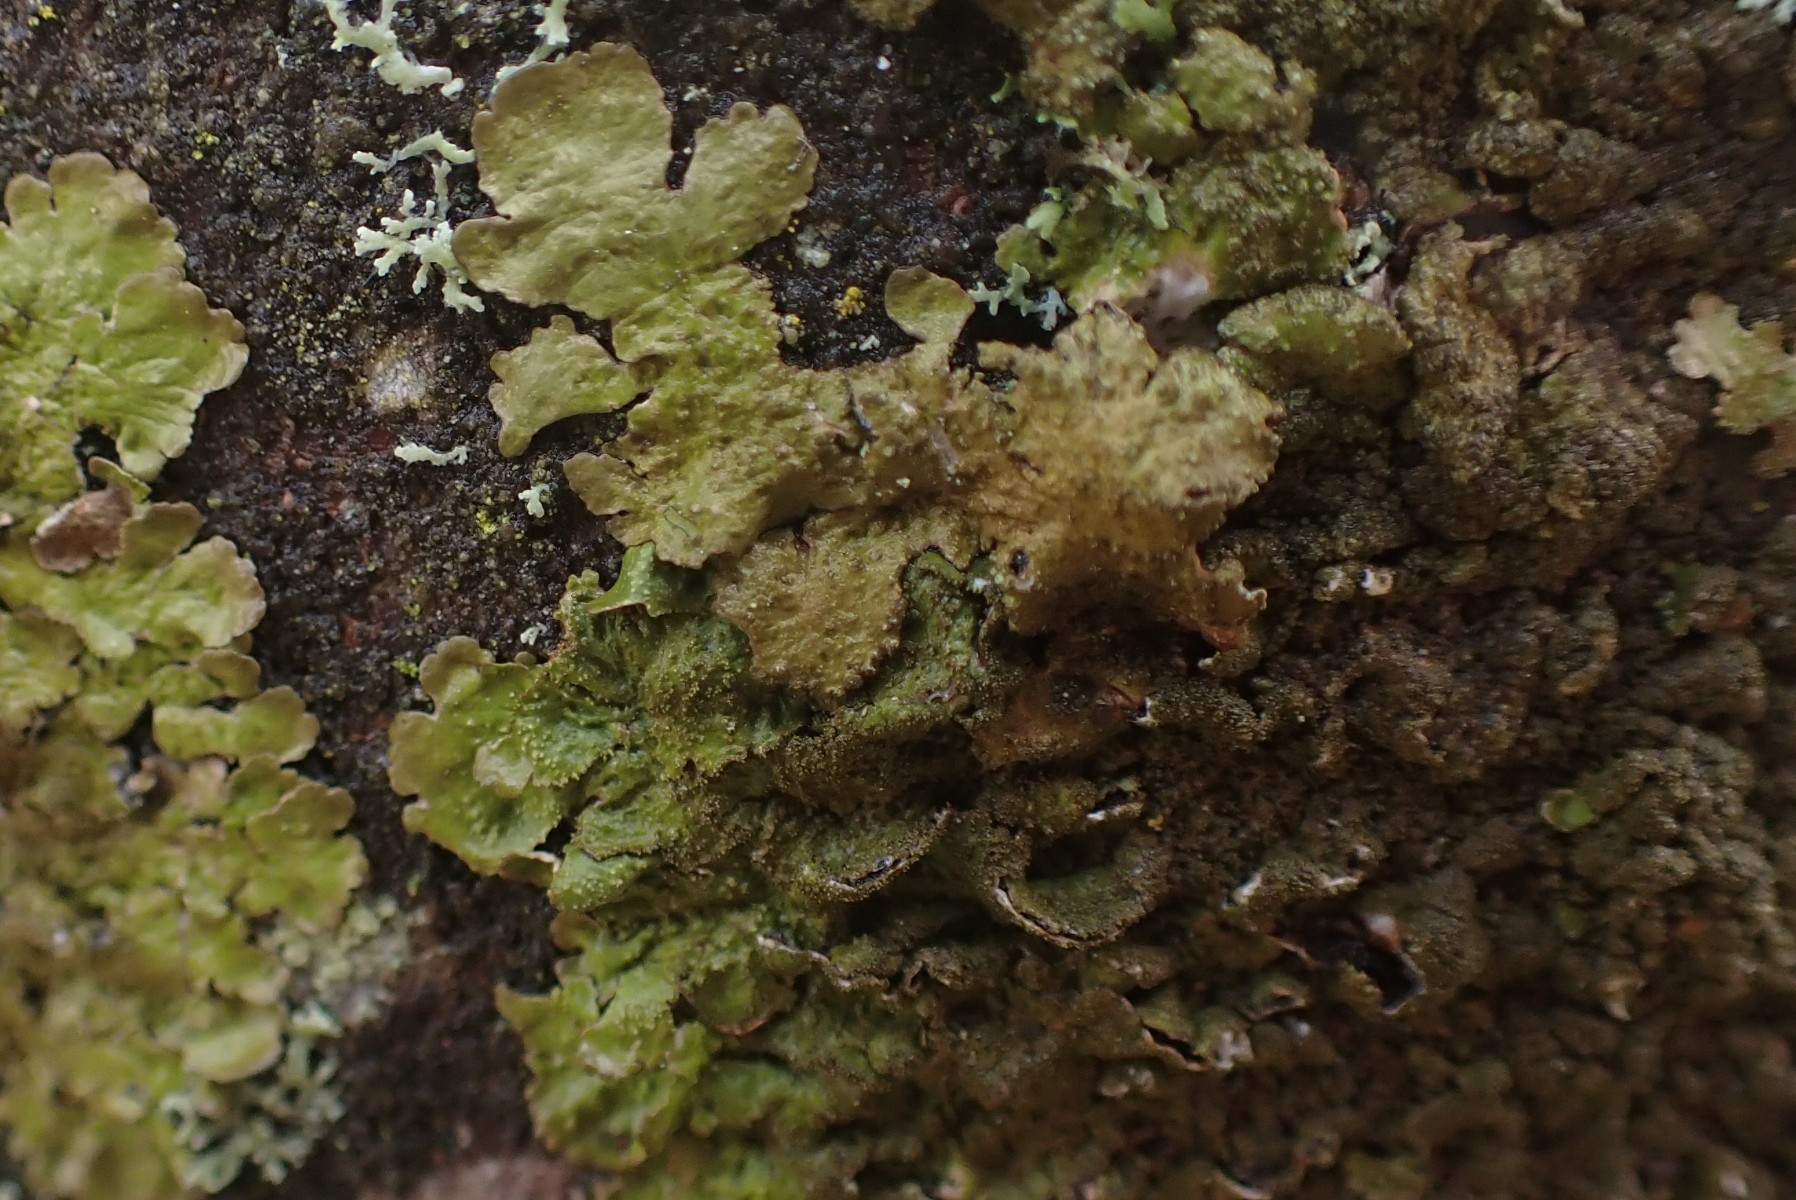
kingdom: Fungi
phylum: Ascomycota
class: Lecanoromycetes
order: Lecanorales
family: Parmeliaceae
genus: Melanelixia
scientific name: Melanelixia glabratula
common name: glinsende skållav
